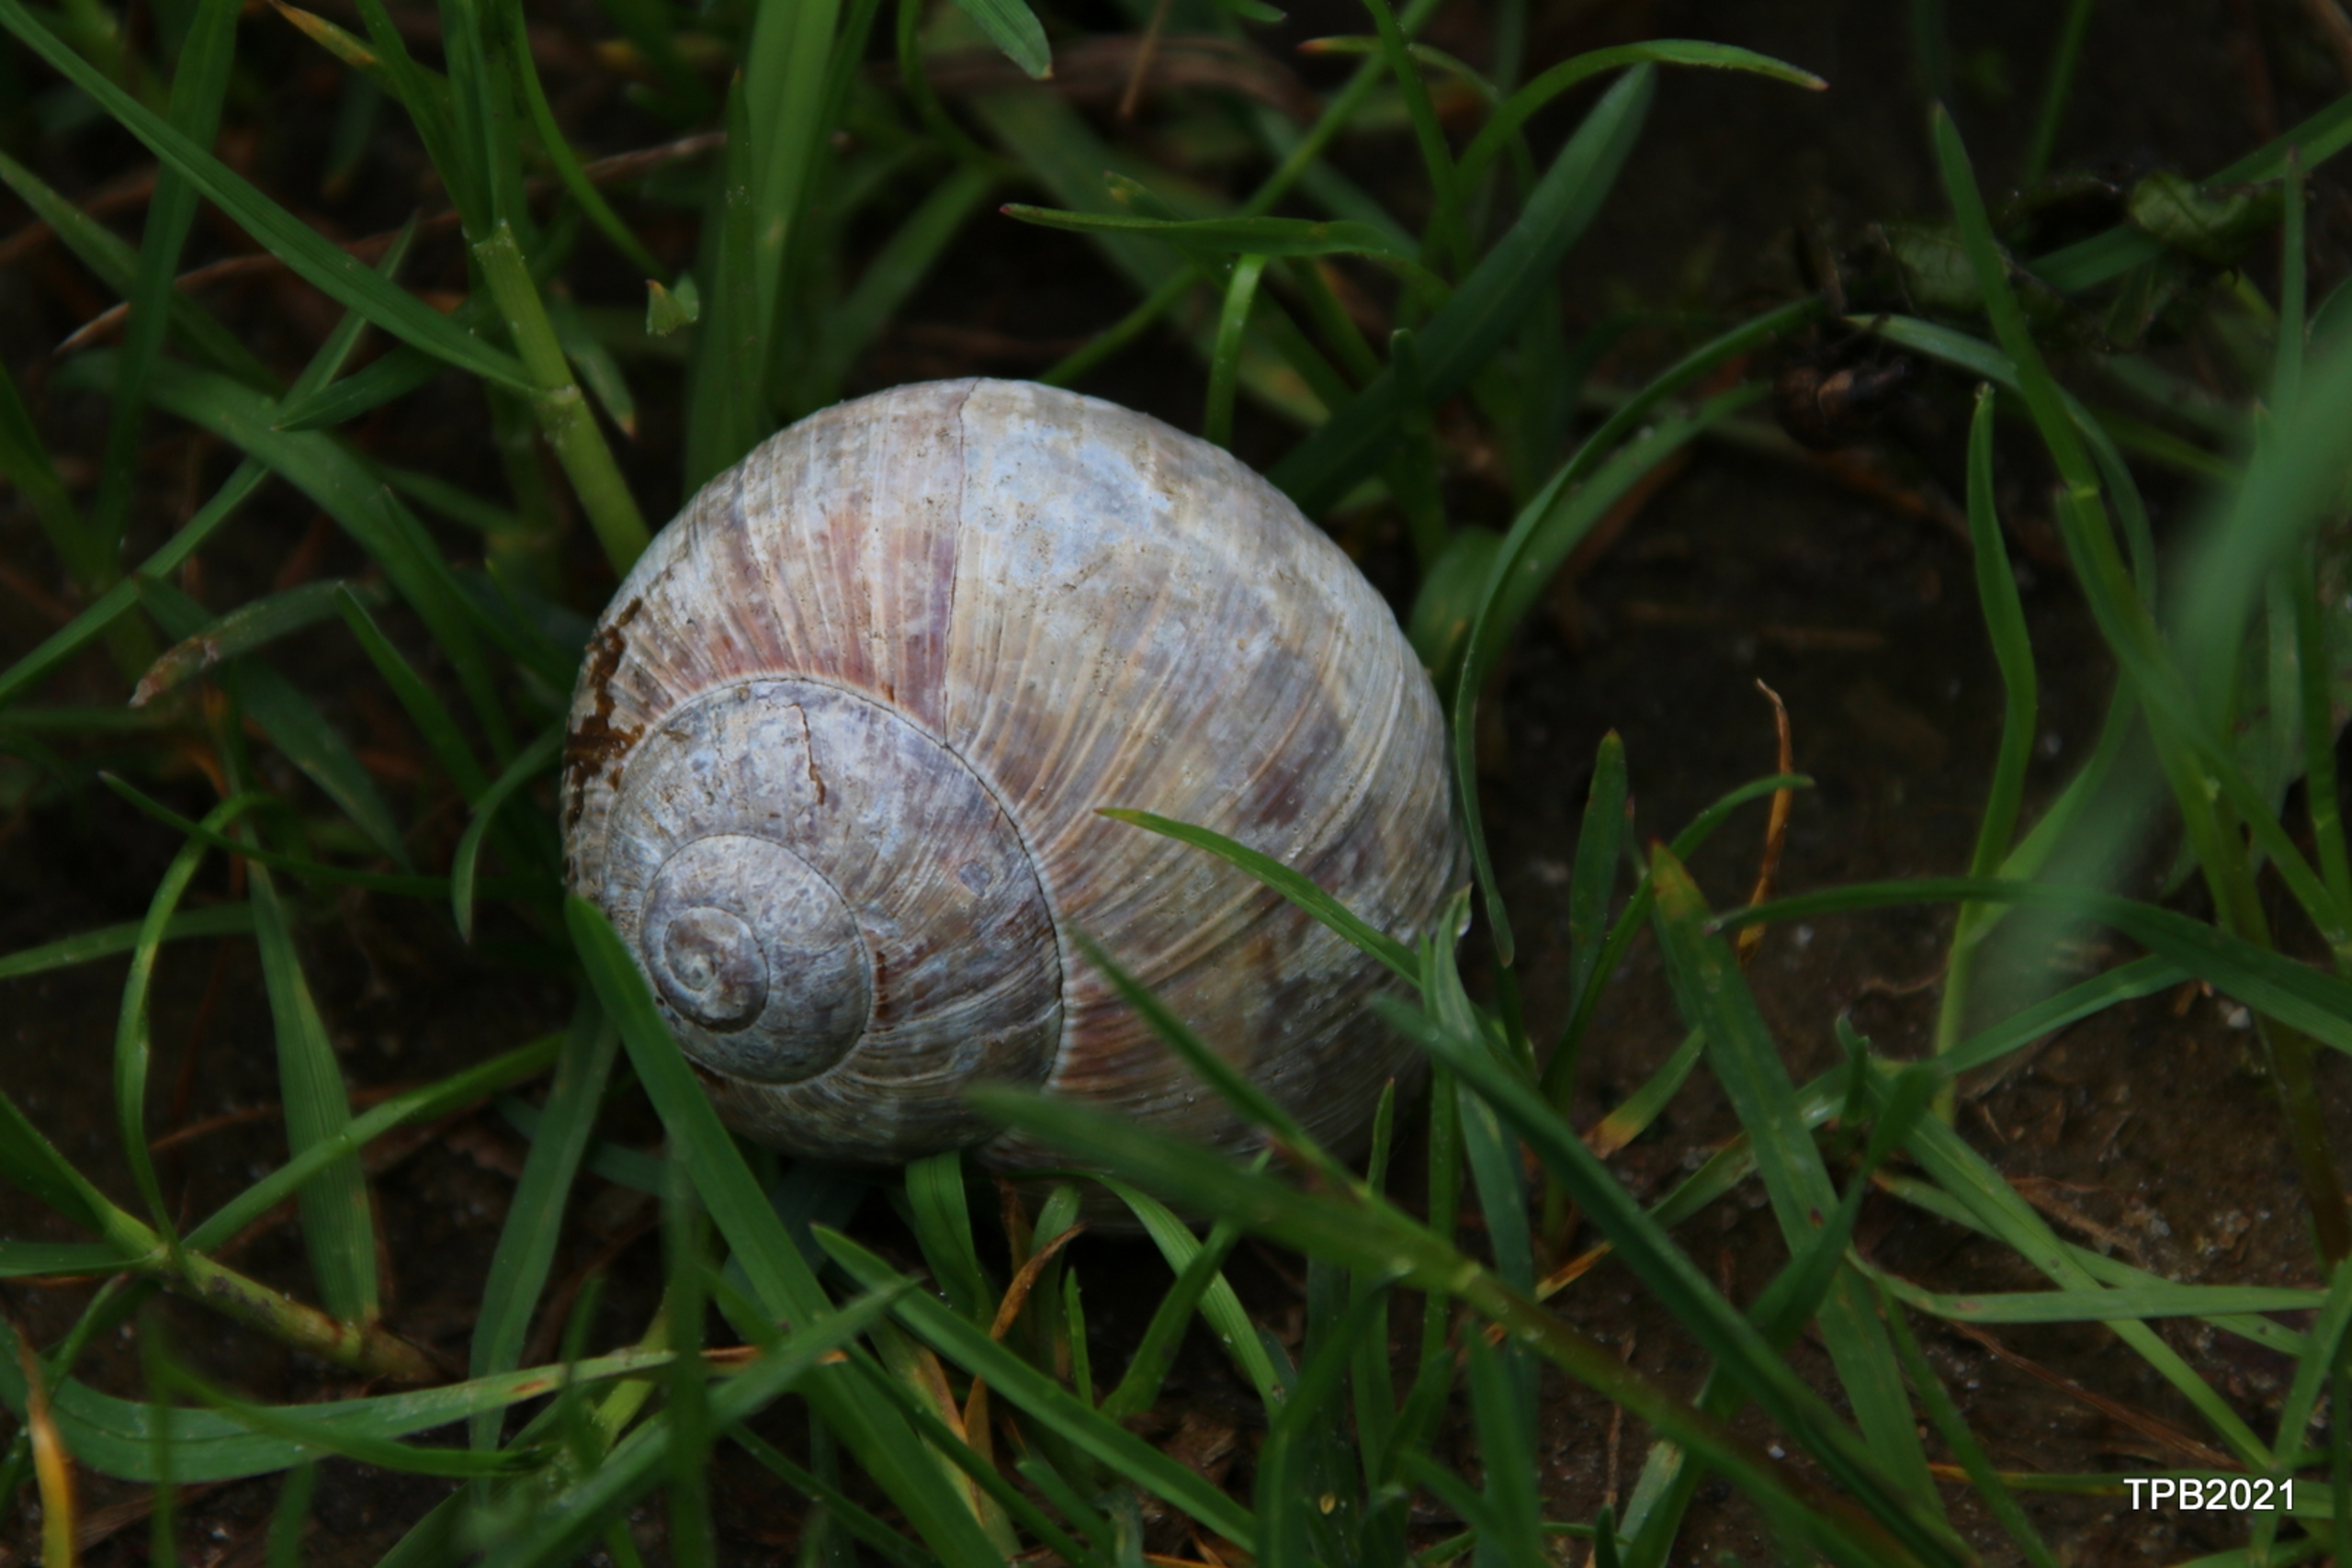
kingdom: Animalia
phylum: Mollusca
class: Gastropoda
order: Stylommatophora
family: Helicidae
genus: Helix
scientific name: Helix pomatia
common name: Vinbjergsnegl
